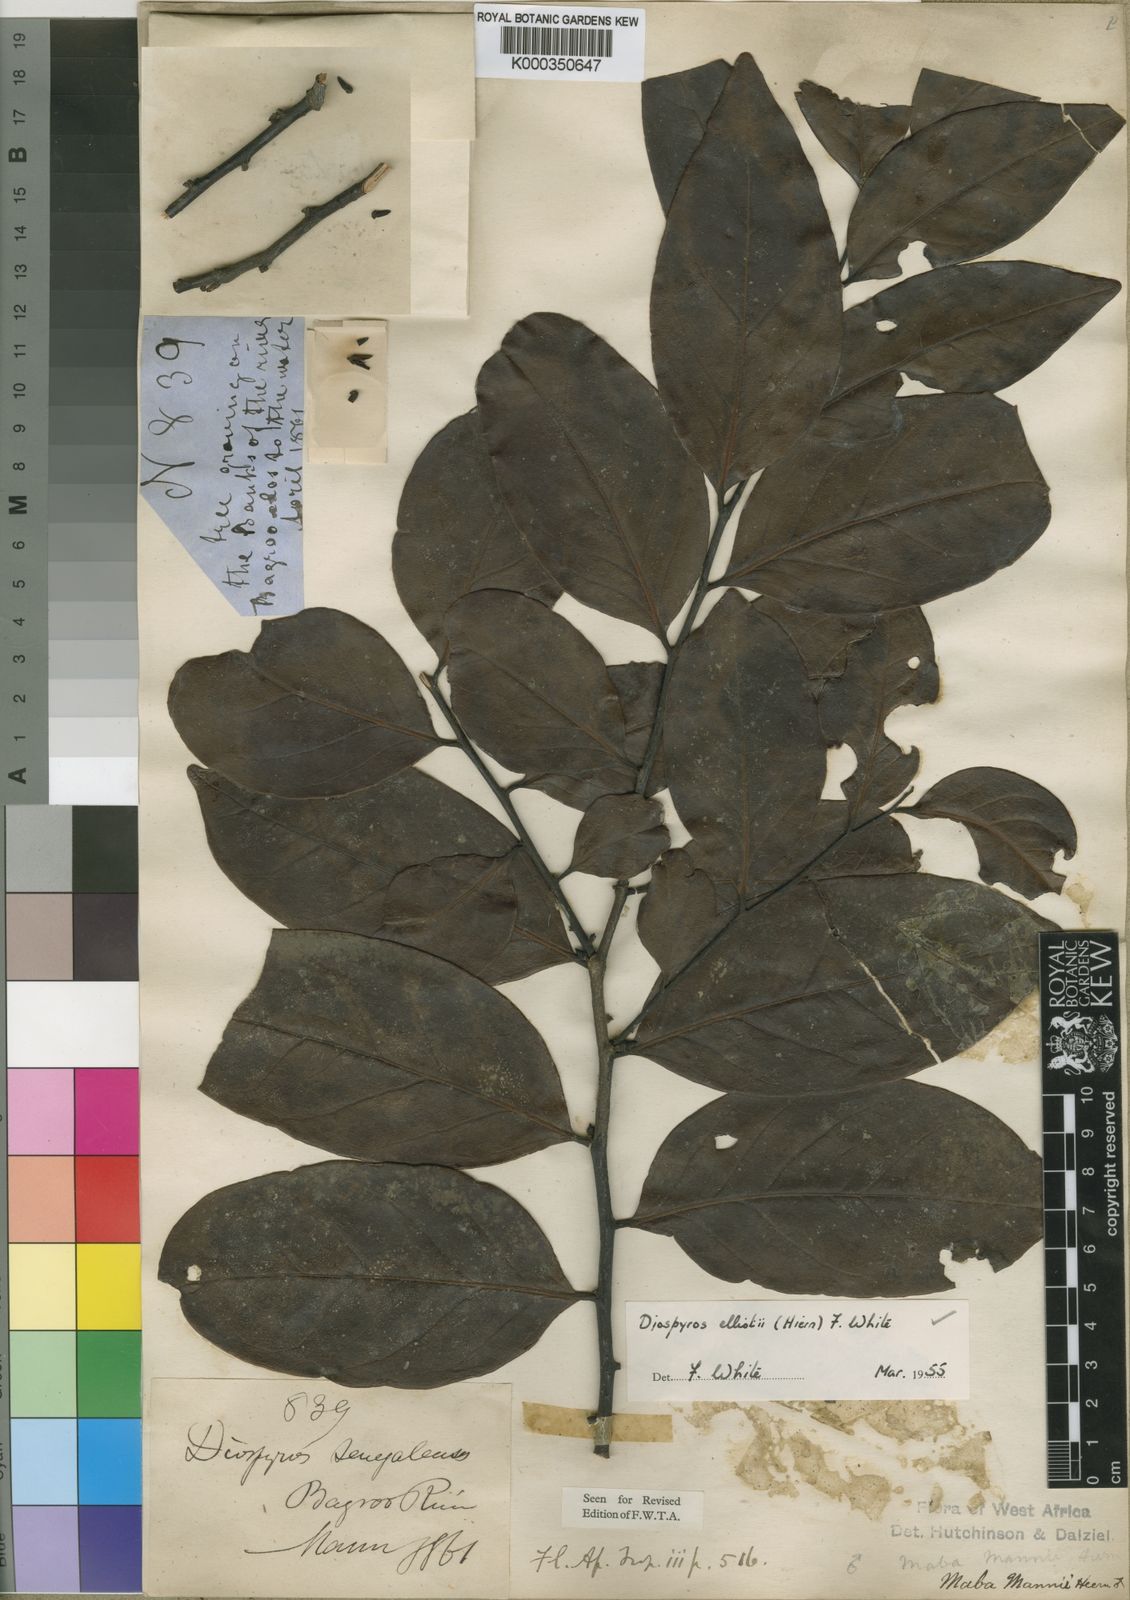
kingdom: Plantae
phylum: Tracheophyta
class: Magnoliopsida
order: Ericales
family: Ebenaceae
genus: Diospyros
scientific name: Diospyros elliotii
